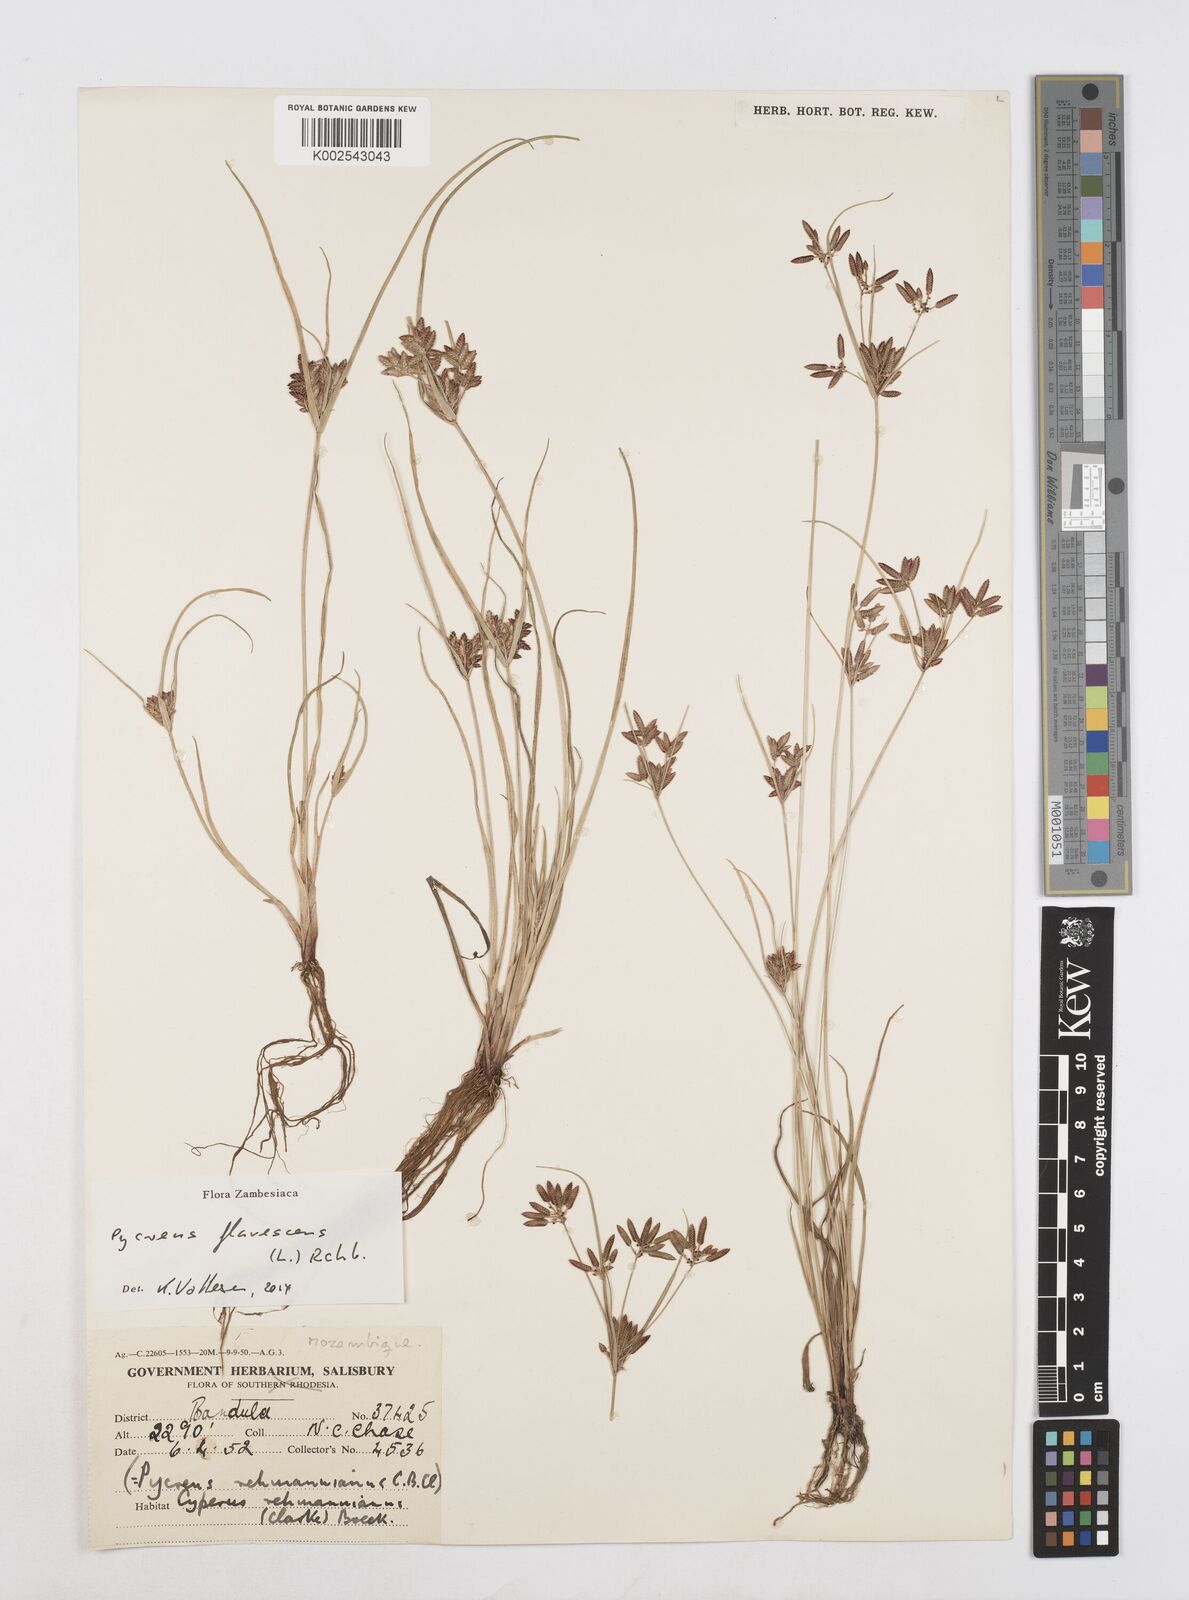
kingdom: Plantae
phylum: Tracheophyta
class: Liliopsida
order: Poales
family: Cyperaceae
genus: Cyperus
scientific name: Cyperus flavescens
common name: Yellow galingale
